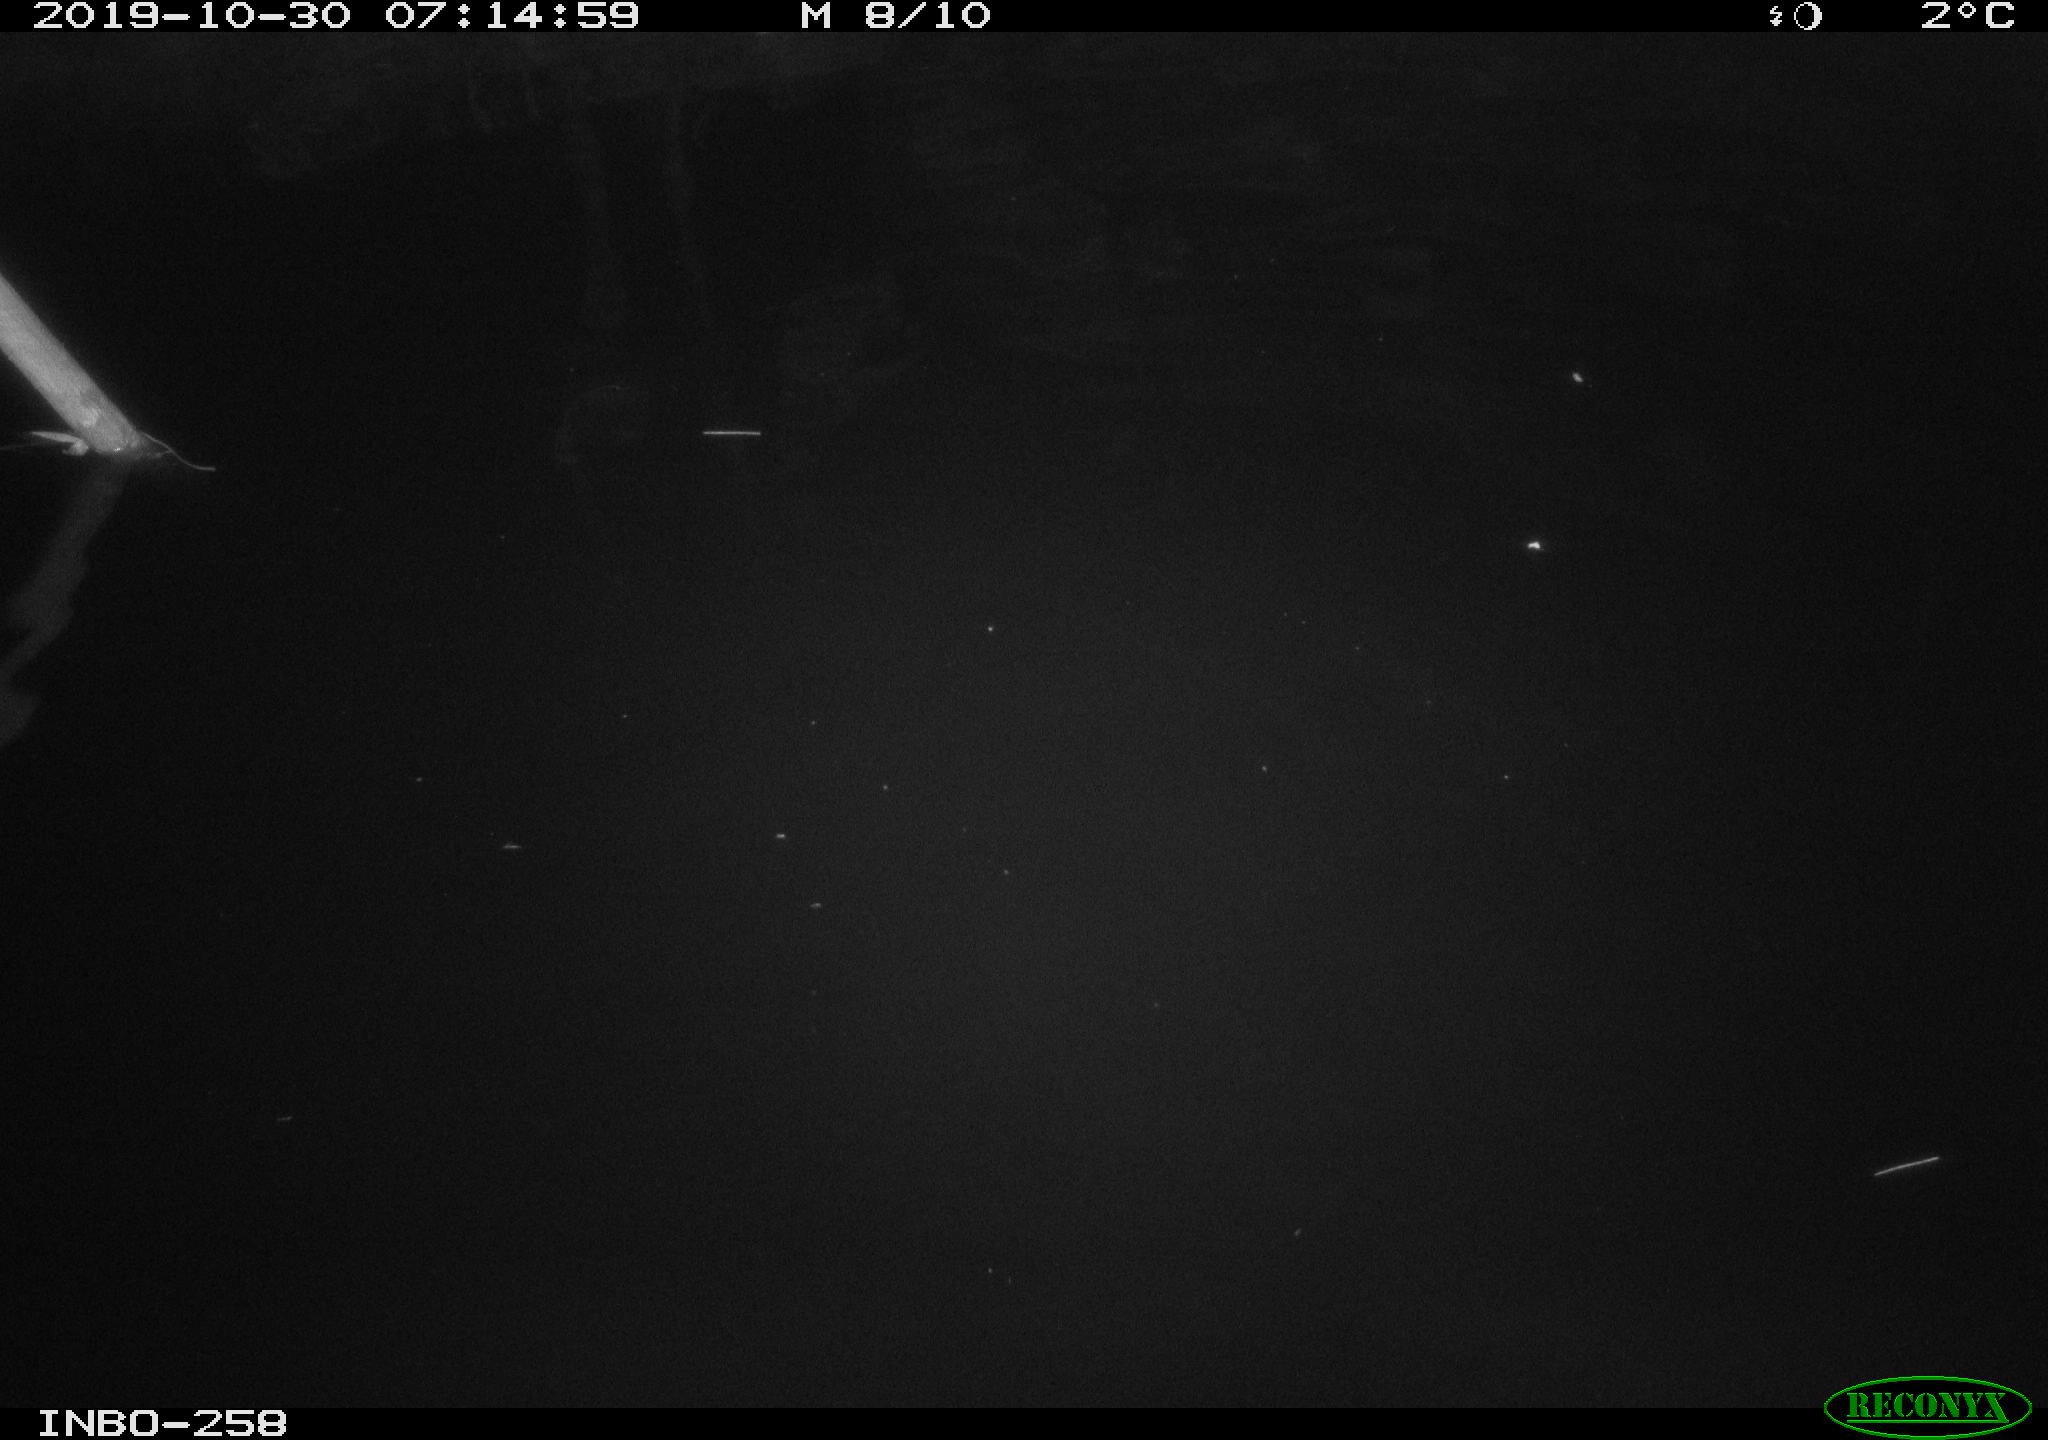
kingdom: Animalia
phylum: Chordata
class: Aves
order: Anseriformes
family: Anatidae
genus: Anas
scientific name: Anas platyrhynchos
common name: Mallard
